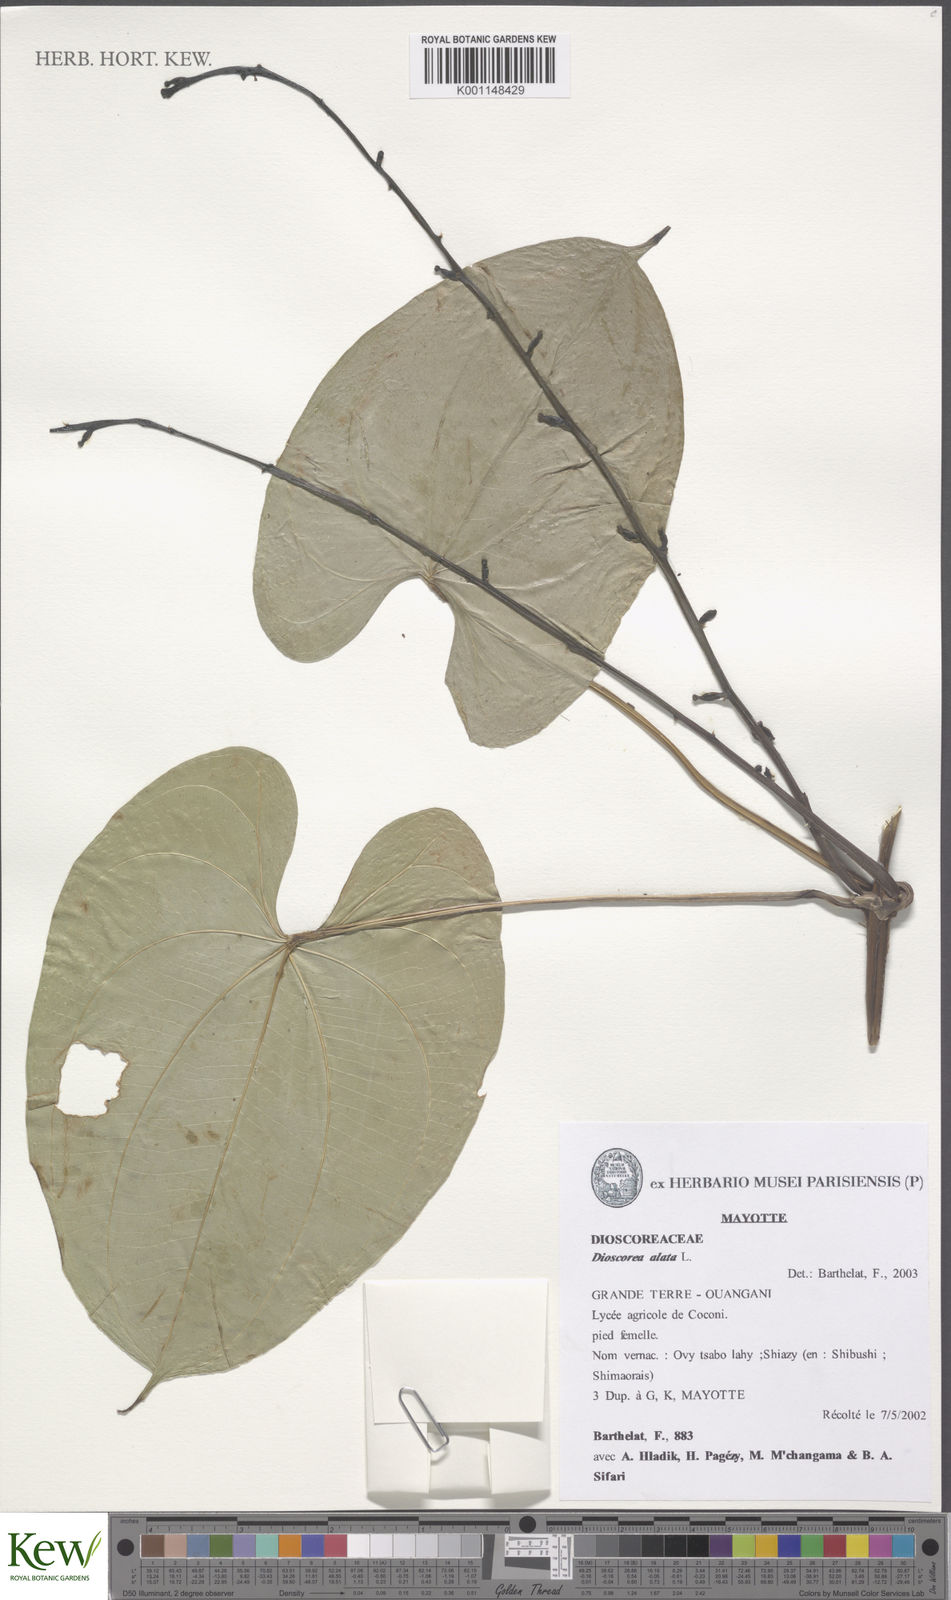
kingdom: Plantae
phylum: Tracheophyta
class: Liliopsida
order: Dioscoreales
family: Dioscoreaceae
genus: Dioscorea
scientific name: Dioscorea alata
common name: Water yam
